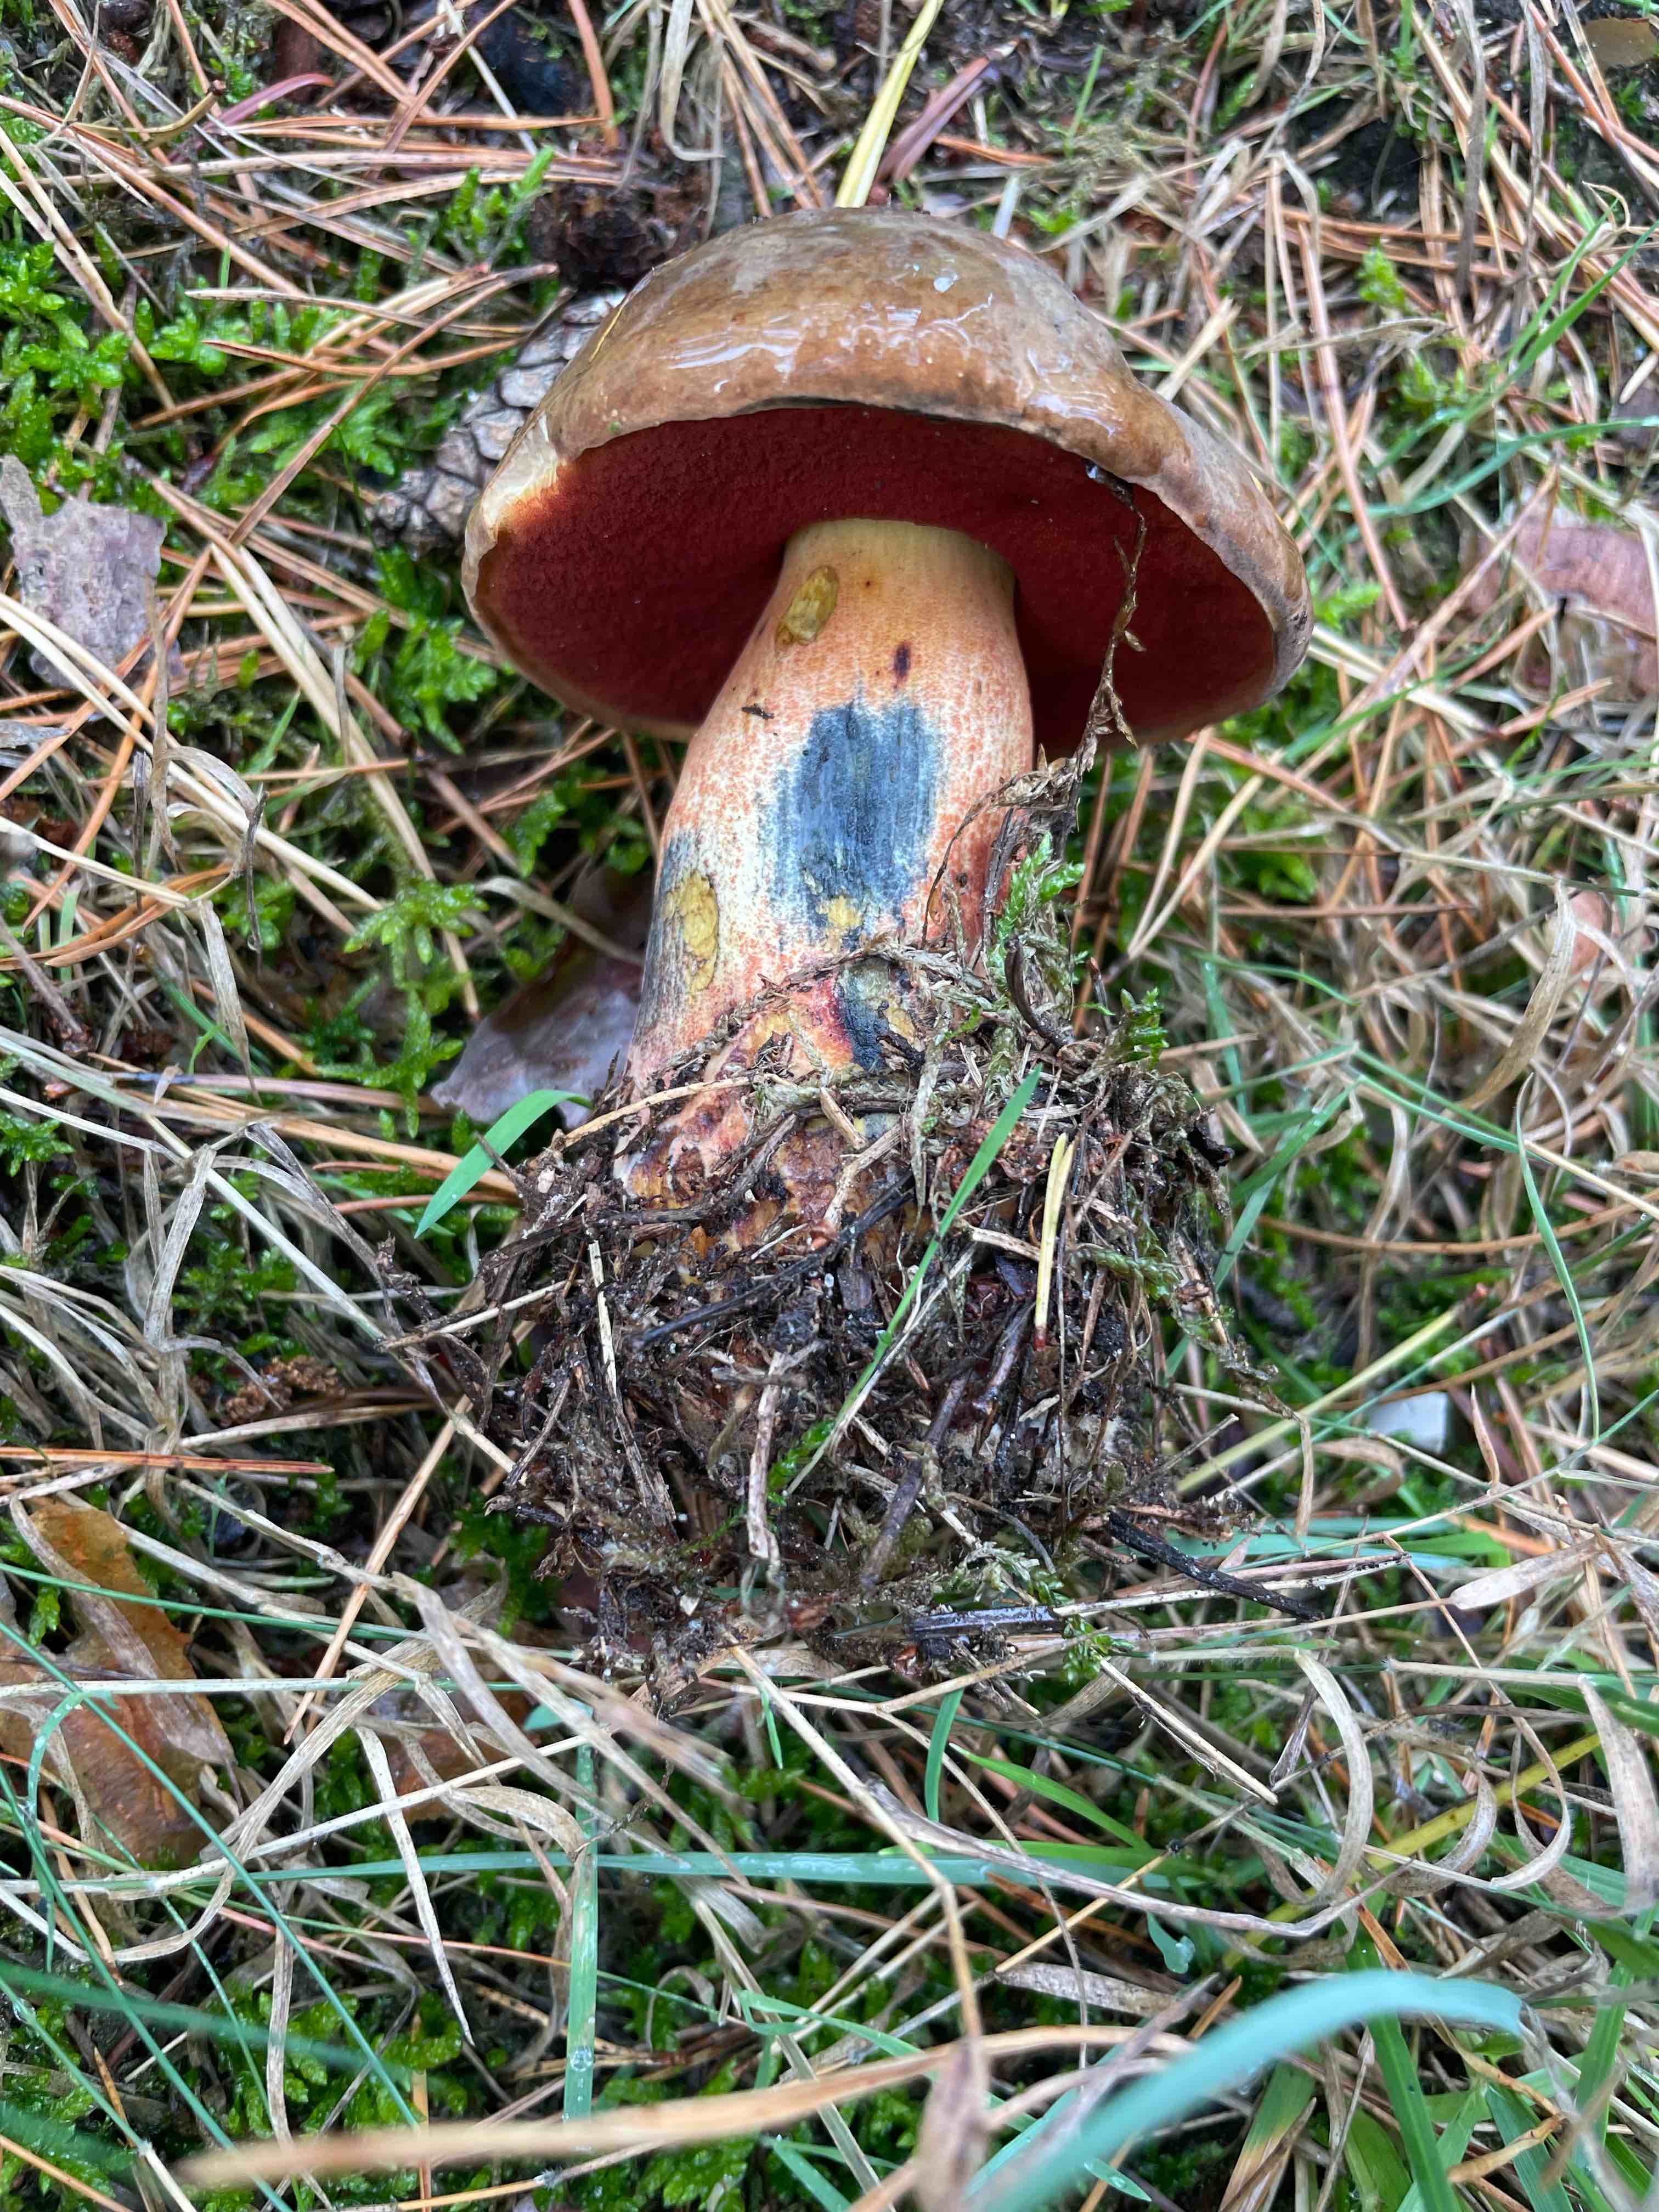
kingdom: Fungi
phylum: Basidiomycota
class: Agaricomycetes
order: Boletales
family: Boletaceae
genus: Neoboletus
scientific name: Neoboletus erythropus
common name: punktstokket indigorørhat
